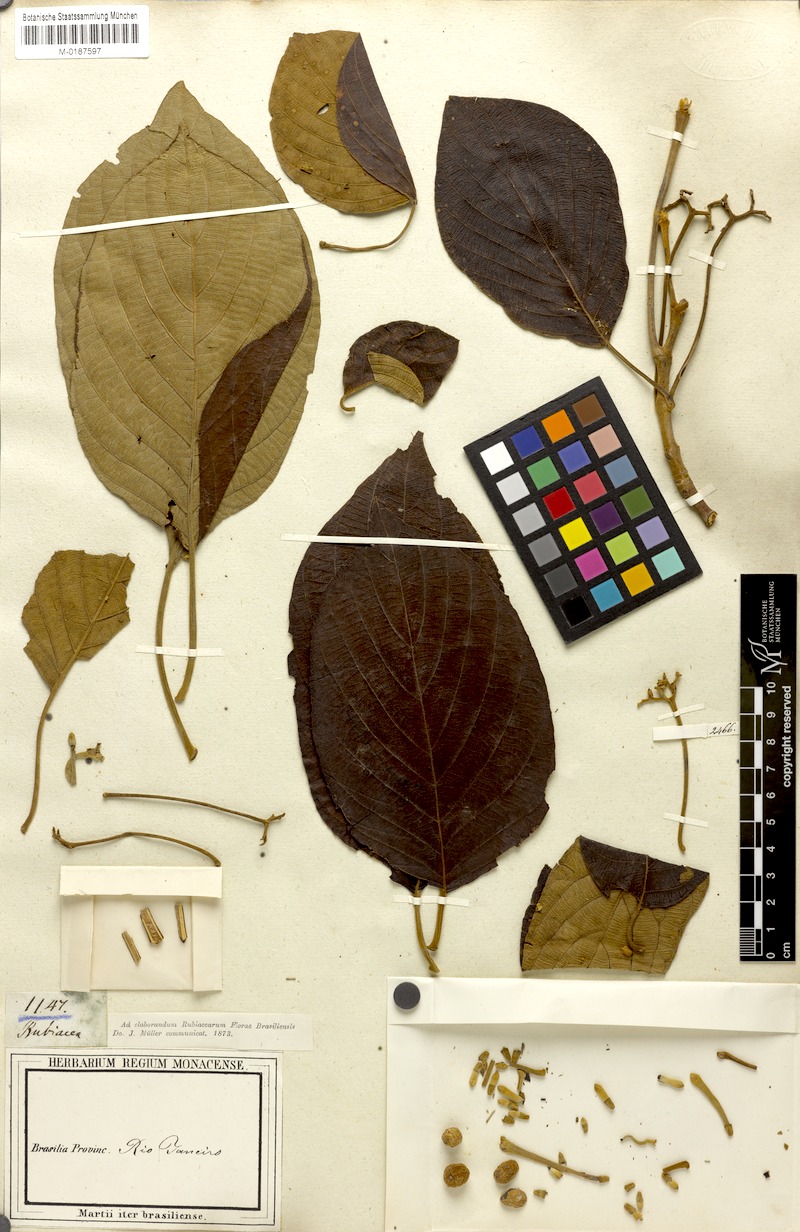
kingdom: Plantae
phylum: Tracheophyta
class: Magnoliopsida
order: Gentianales
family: Rubiaceae
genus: Guettarda
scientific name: Guettarda viburnoides
